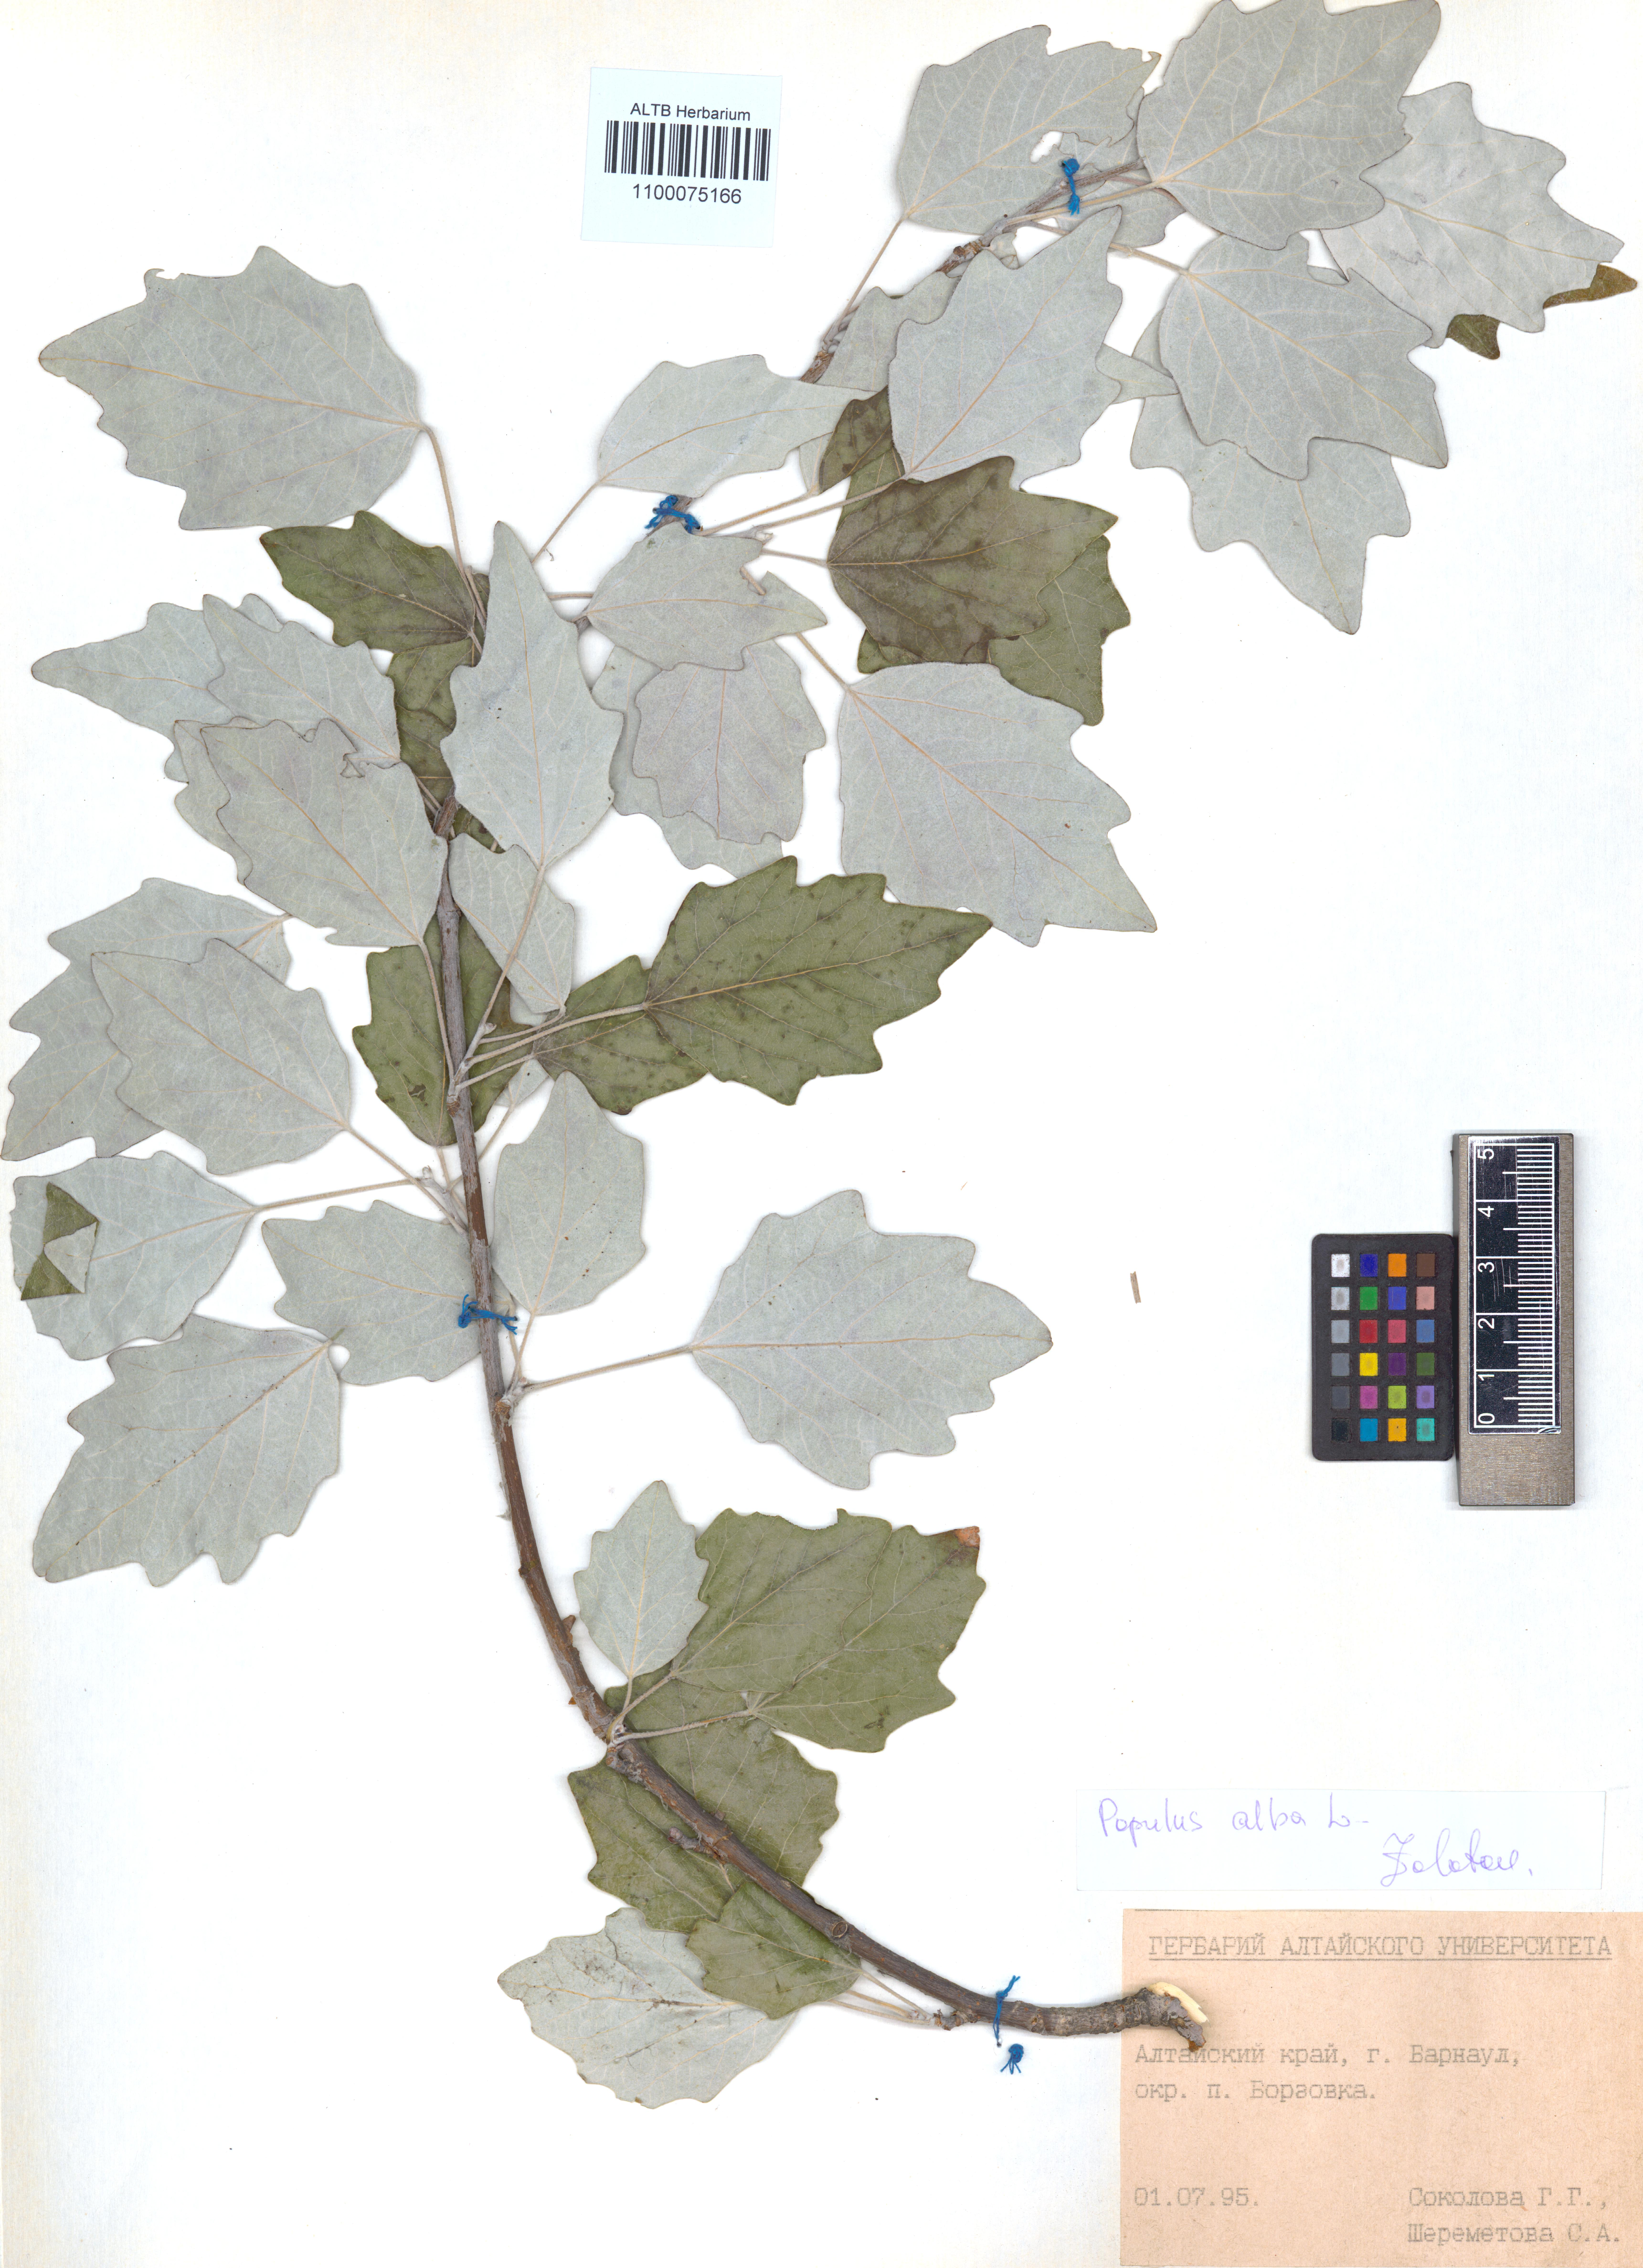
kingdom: Plantae
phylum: Tracheophyta
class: Magnoliopsida
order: Malpighiales
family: Salicaceae
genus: Populus
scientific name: Populus alba
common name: White poplar
